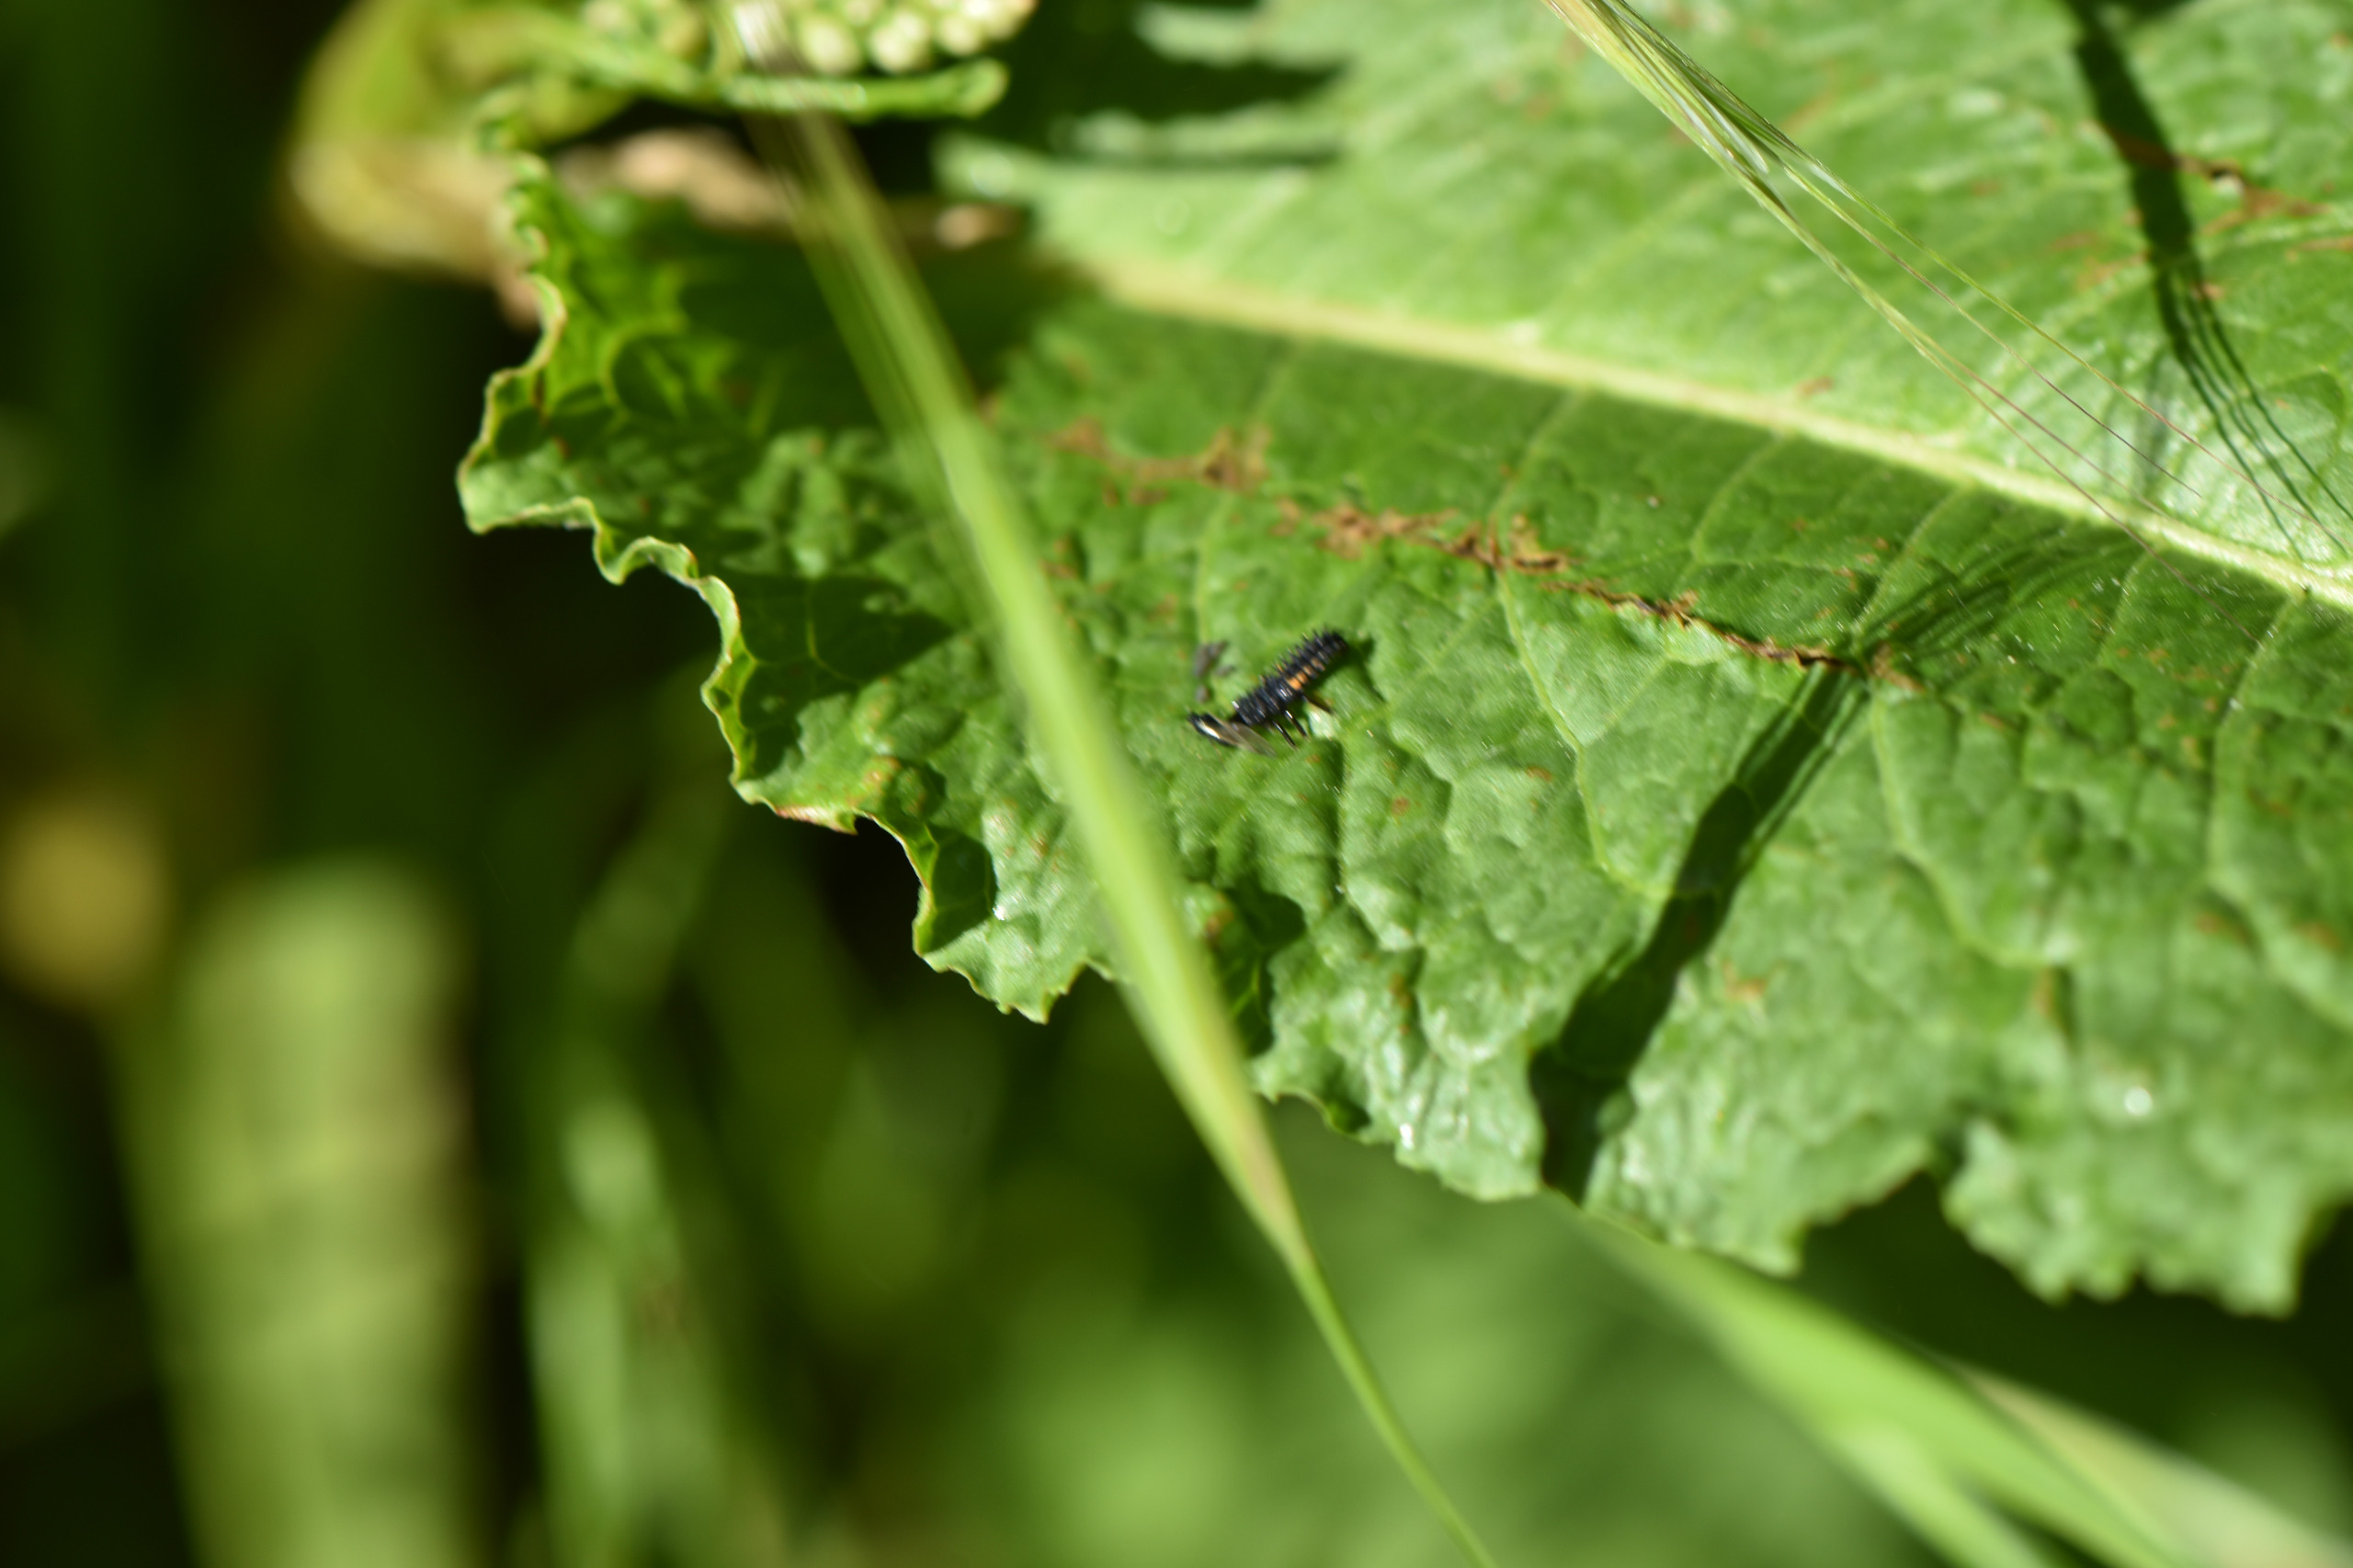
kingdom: Animalia
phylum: Arthropoda
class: Insecta
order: Coleoptera
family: Coccinellidae
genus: Harmonia
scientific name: Harmonia axyridis
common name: Harlekinmariehøne
